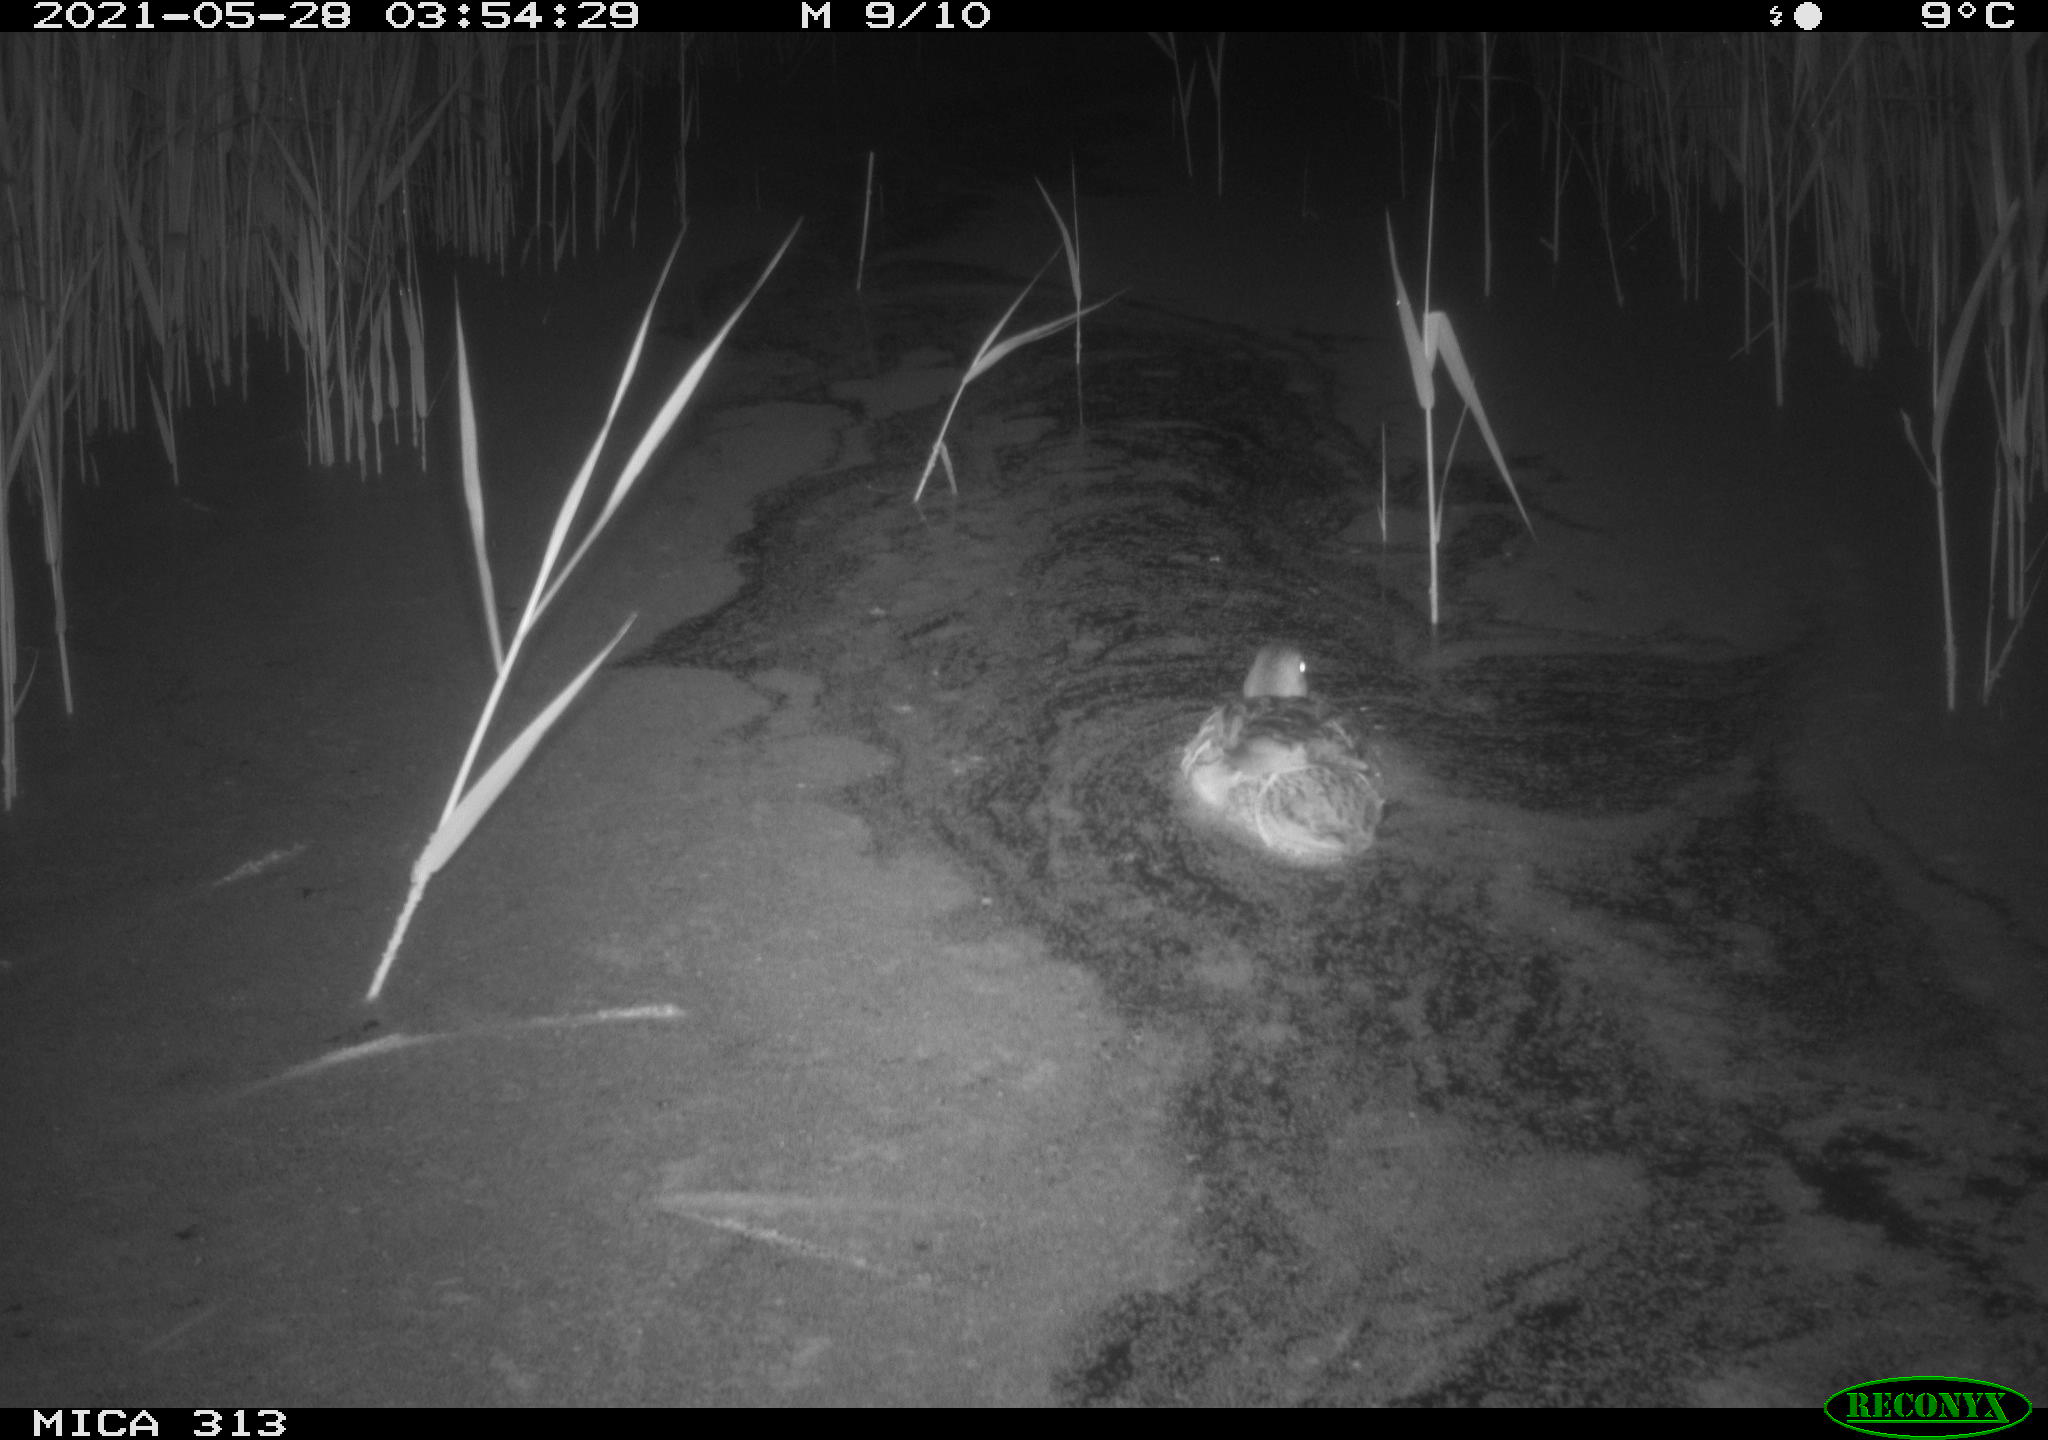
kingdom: Animalia
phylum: Chordata
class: Aves
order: Anseriformes
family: Anatidae
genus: Anas
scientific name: Anas platyrhynchos
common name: Mallard
